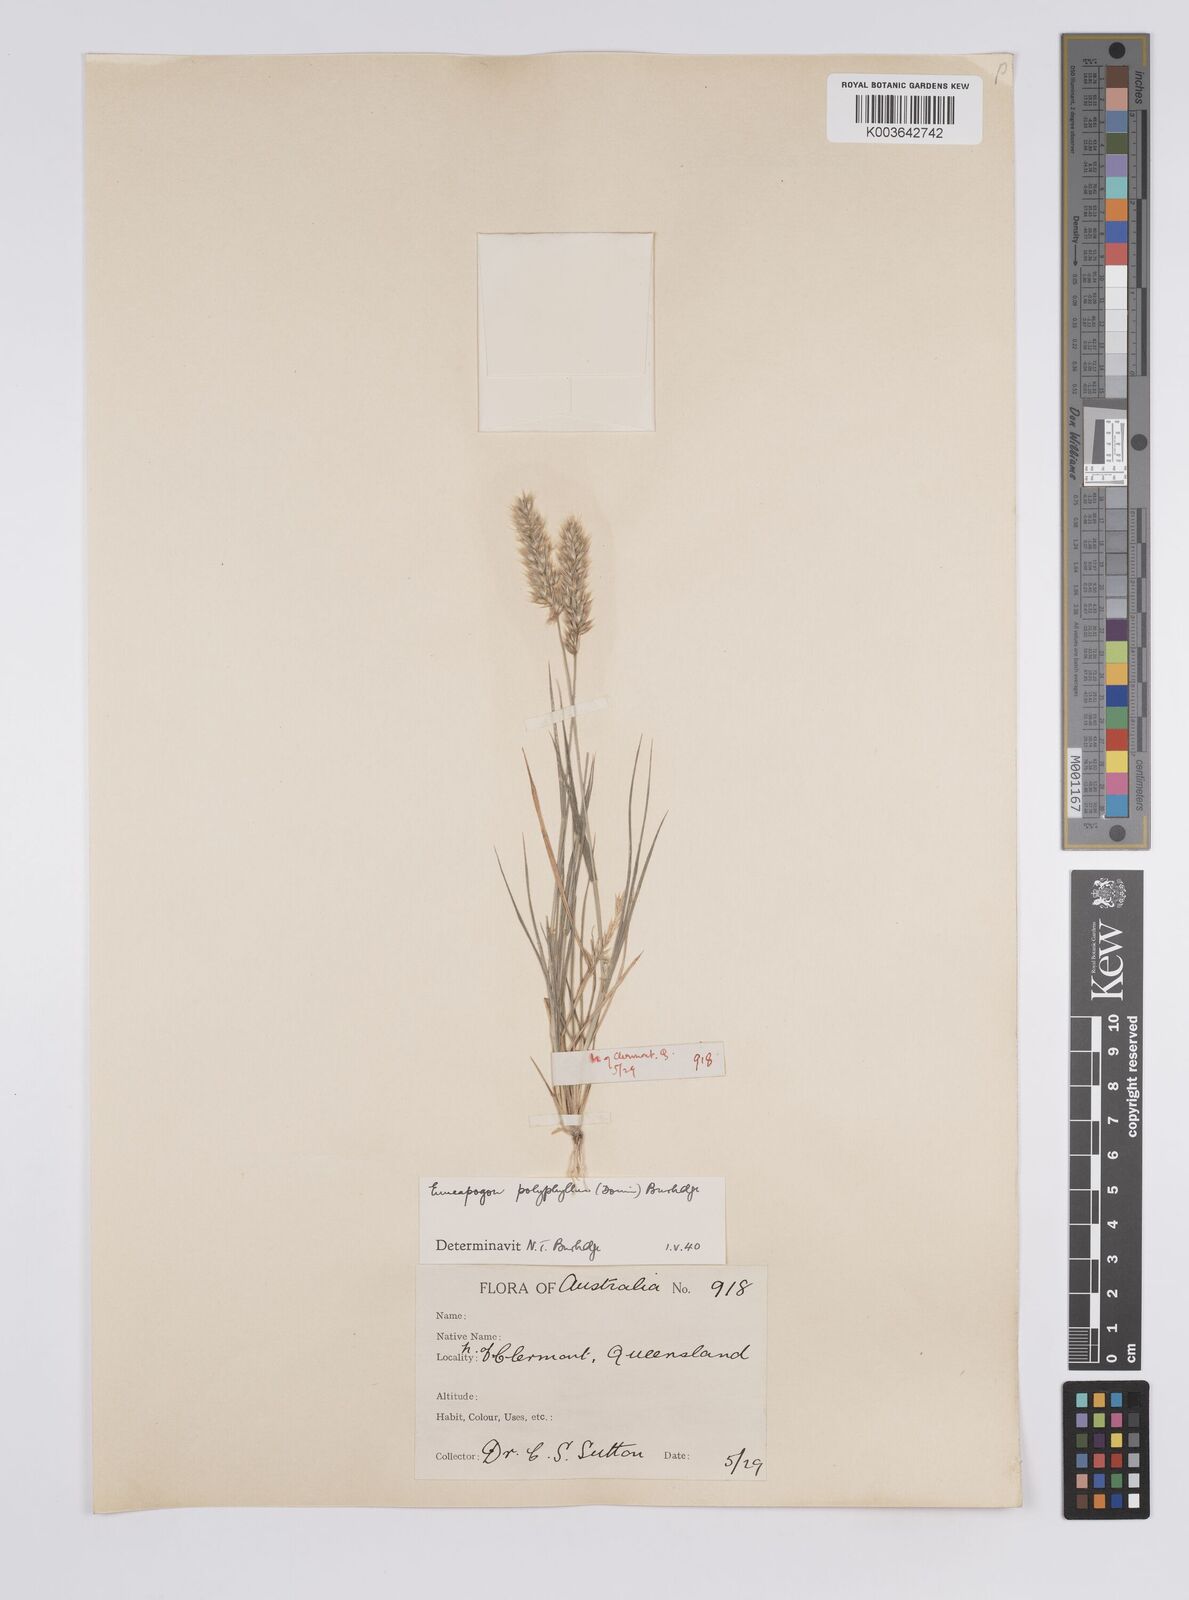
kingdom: Plantae
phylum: Tracheophyta
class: Liliopsida
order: Poales
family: Poaceae
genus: Enneapogon
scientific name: Enneapogon polyphyllus
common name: Leafy nineawn
